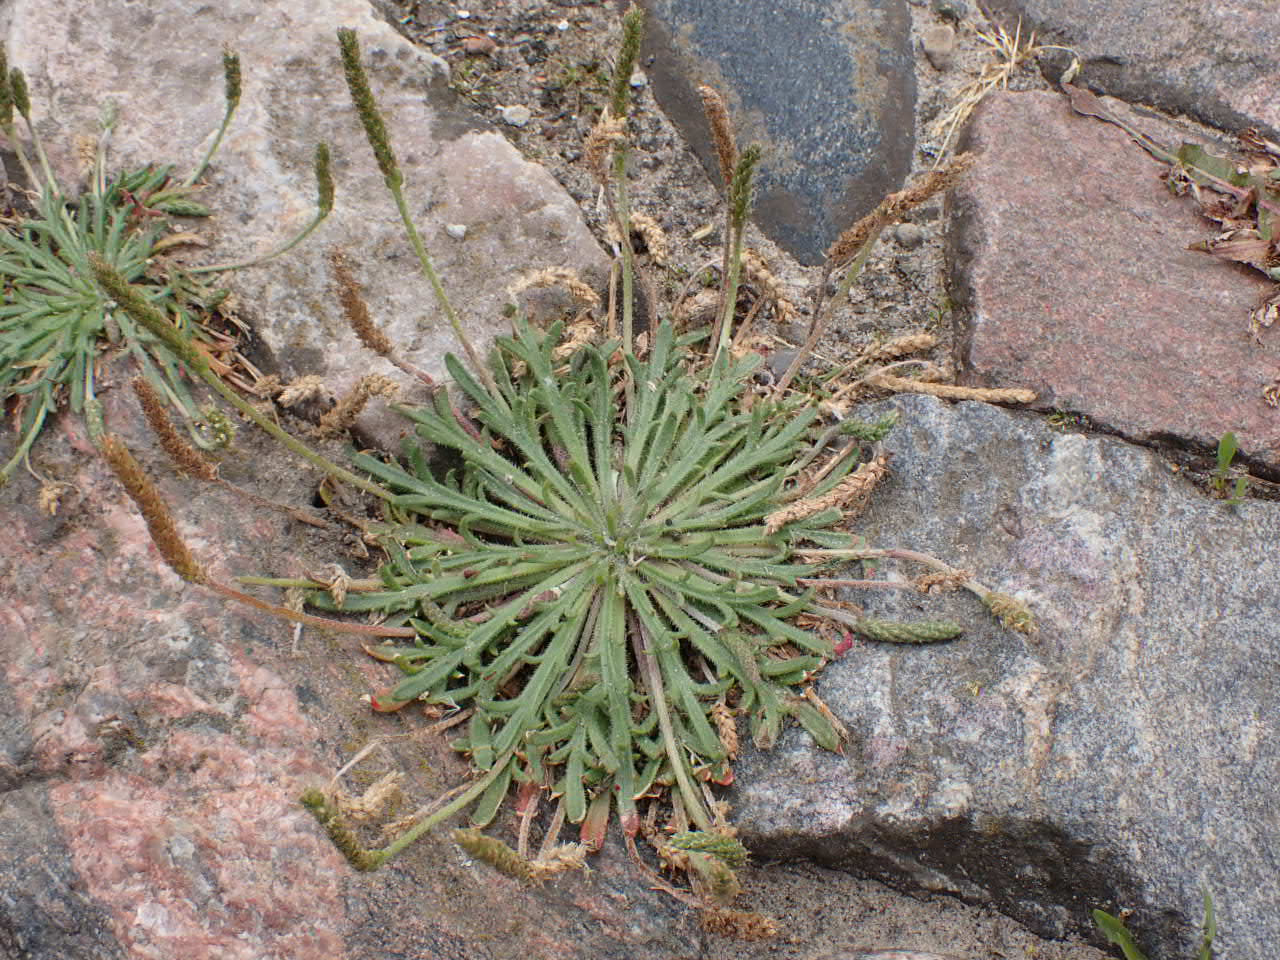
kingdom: Plantae
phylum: Tracheophyta
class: Magnoliopsida
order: Lamiales
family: Plantaginaceae
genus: Plantago
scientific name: Plantago coronopus
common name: Fliget vejbred
